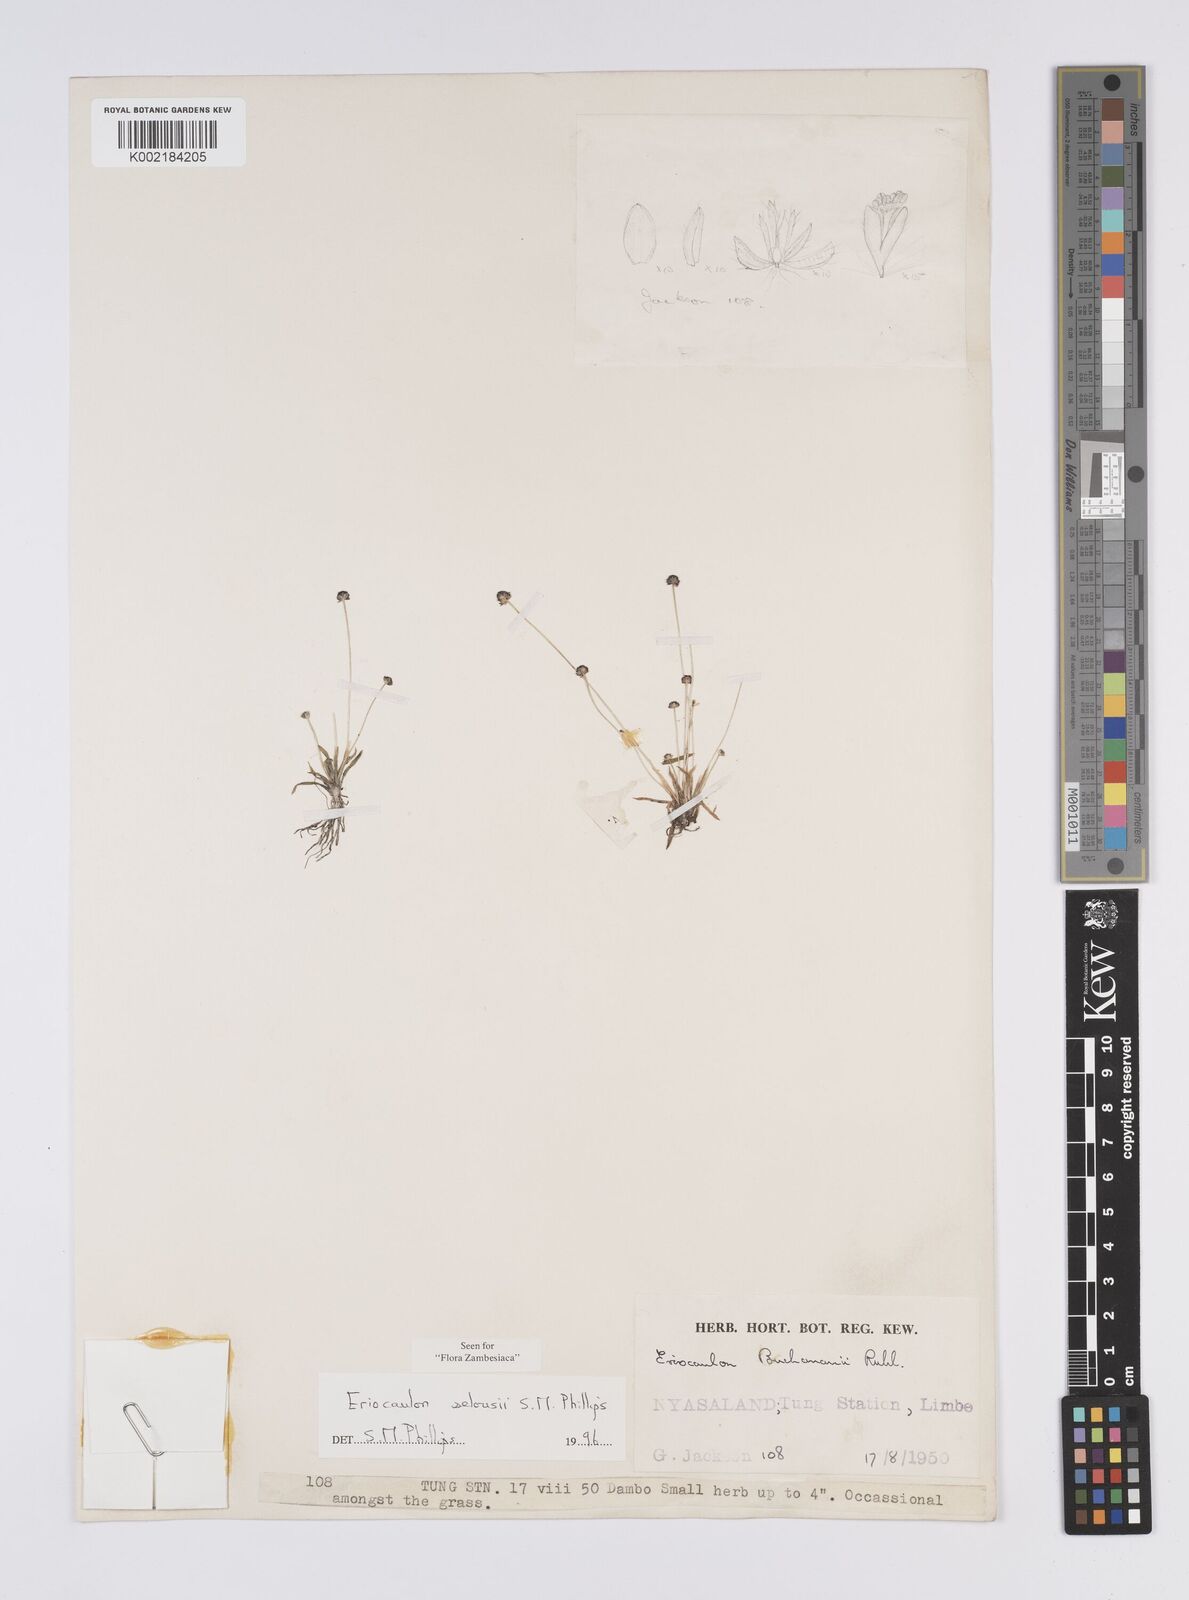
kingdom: Plantae
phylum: Tracheophyta
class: Liliopsida
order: Poales
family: Eriocaulaceae
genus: Eriocaulon
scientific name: Eriocaulon selousii
